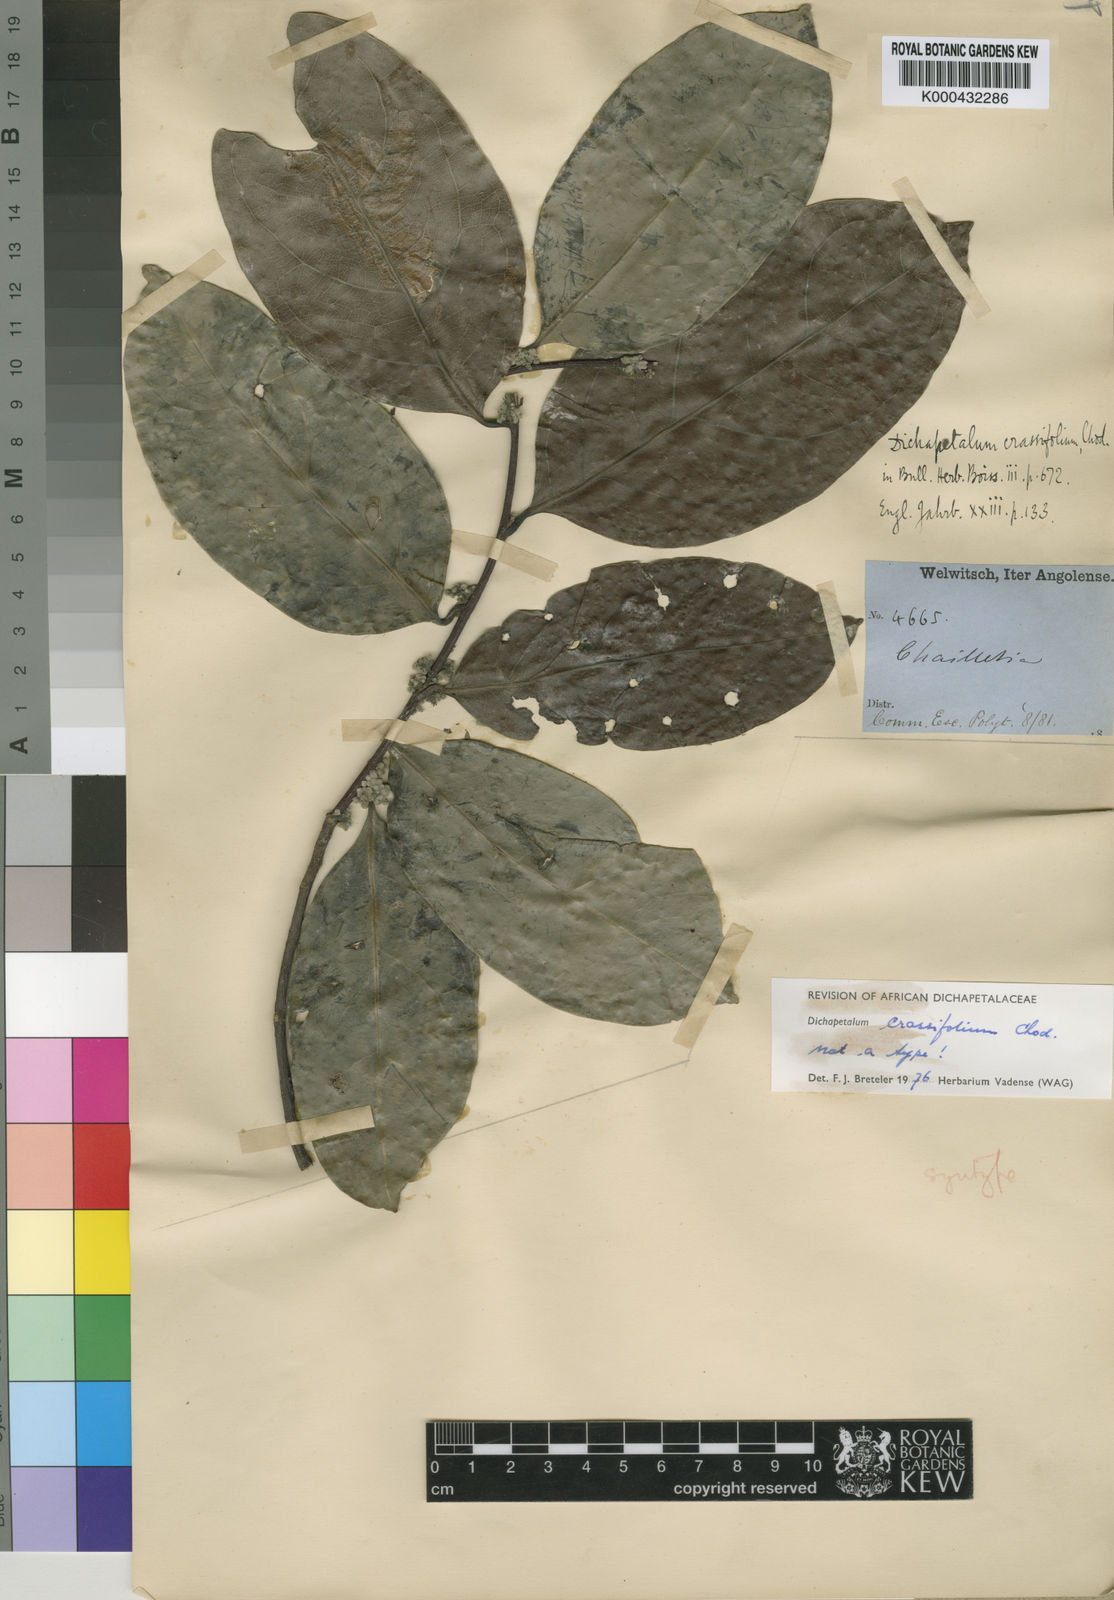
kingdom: Plantae
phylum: Tracheophyta
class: Magnoliopsida
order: Malpighiales
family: Dichapetalaceae
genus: Dichapetalum
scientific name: Dichapetalum crassifolium
